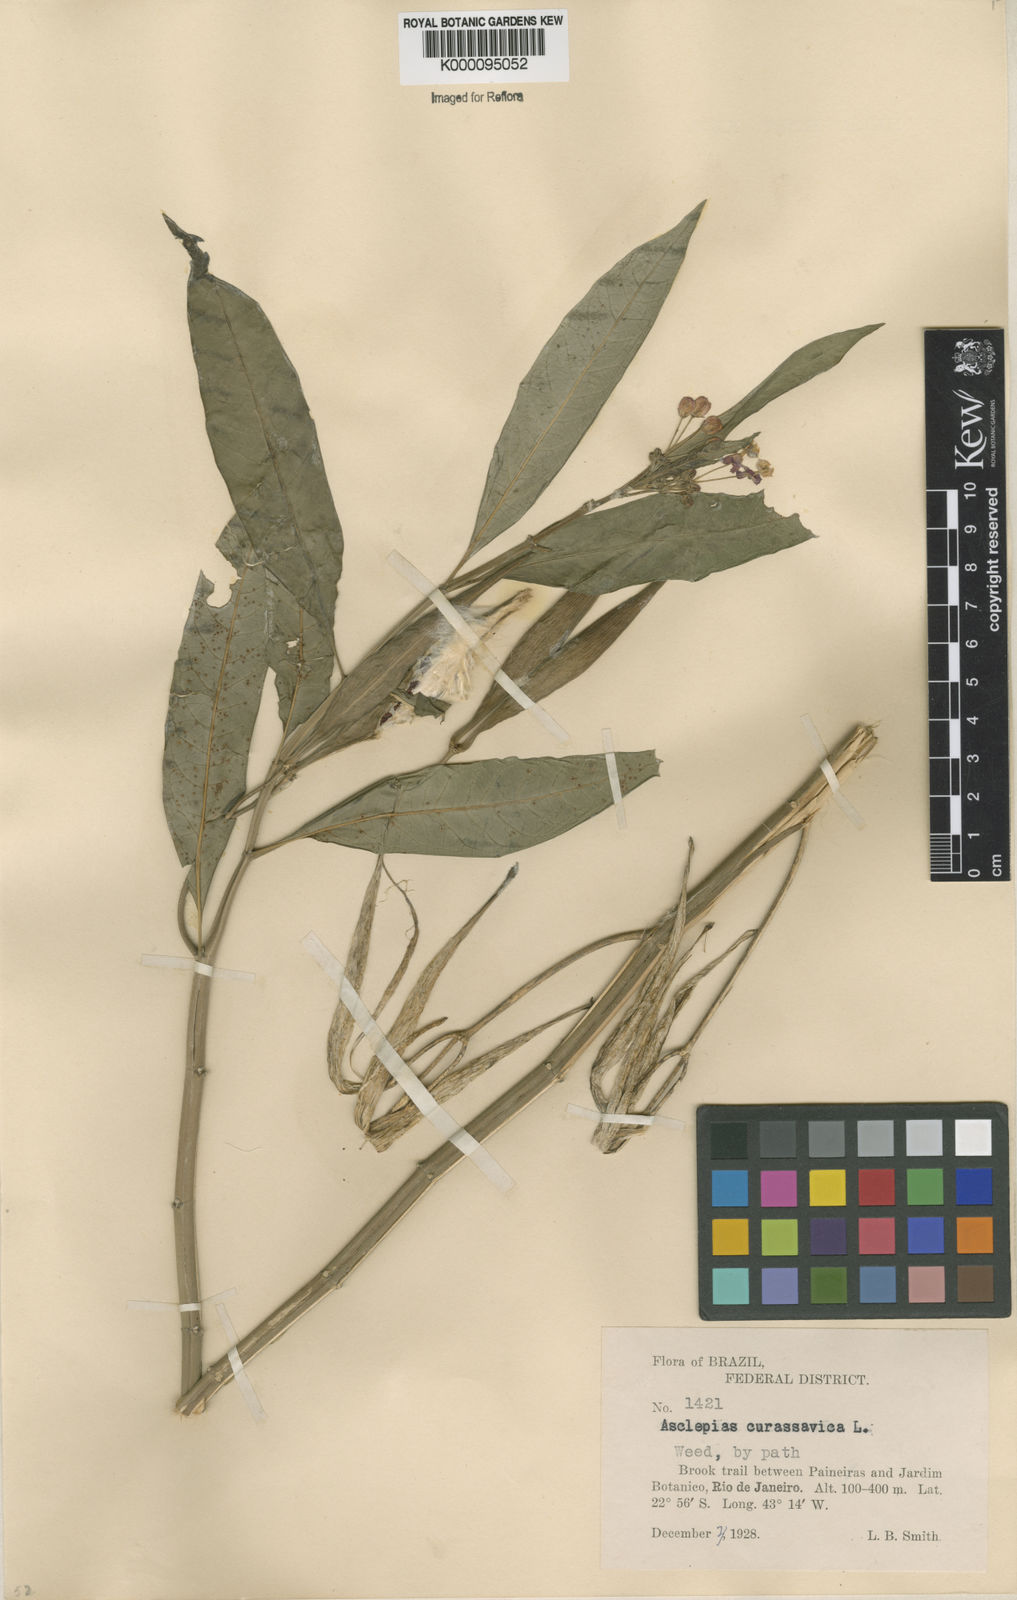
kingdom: Plantae
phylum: Tracheophyta
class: Magnoliopsida
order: Gentianales
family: Apocynaceae
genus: Asclepias
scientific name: Asclepias curassavica
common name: Bloodflower
